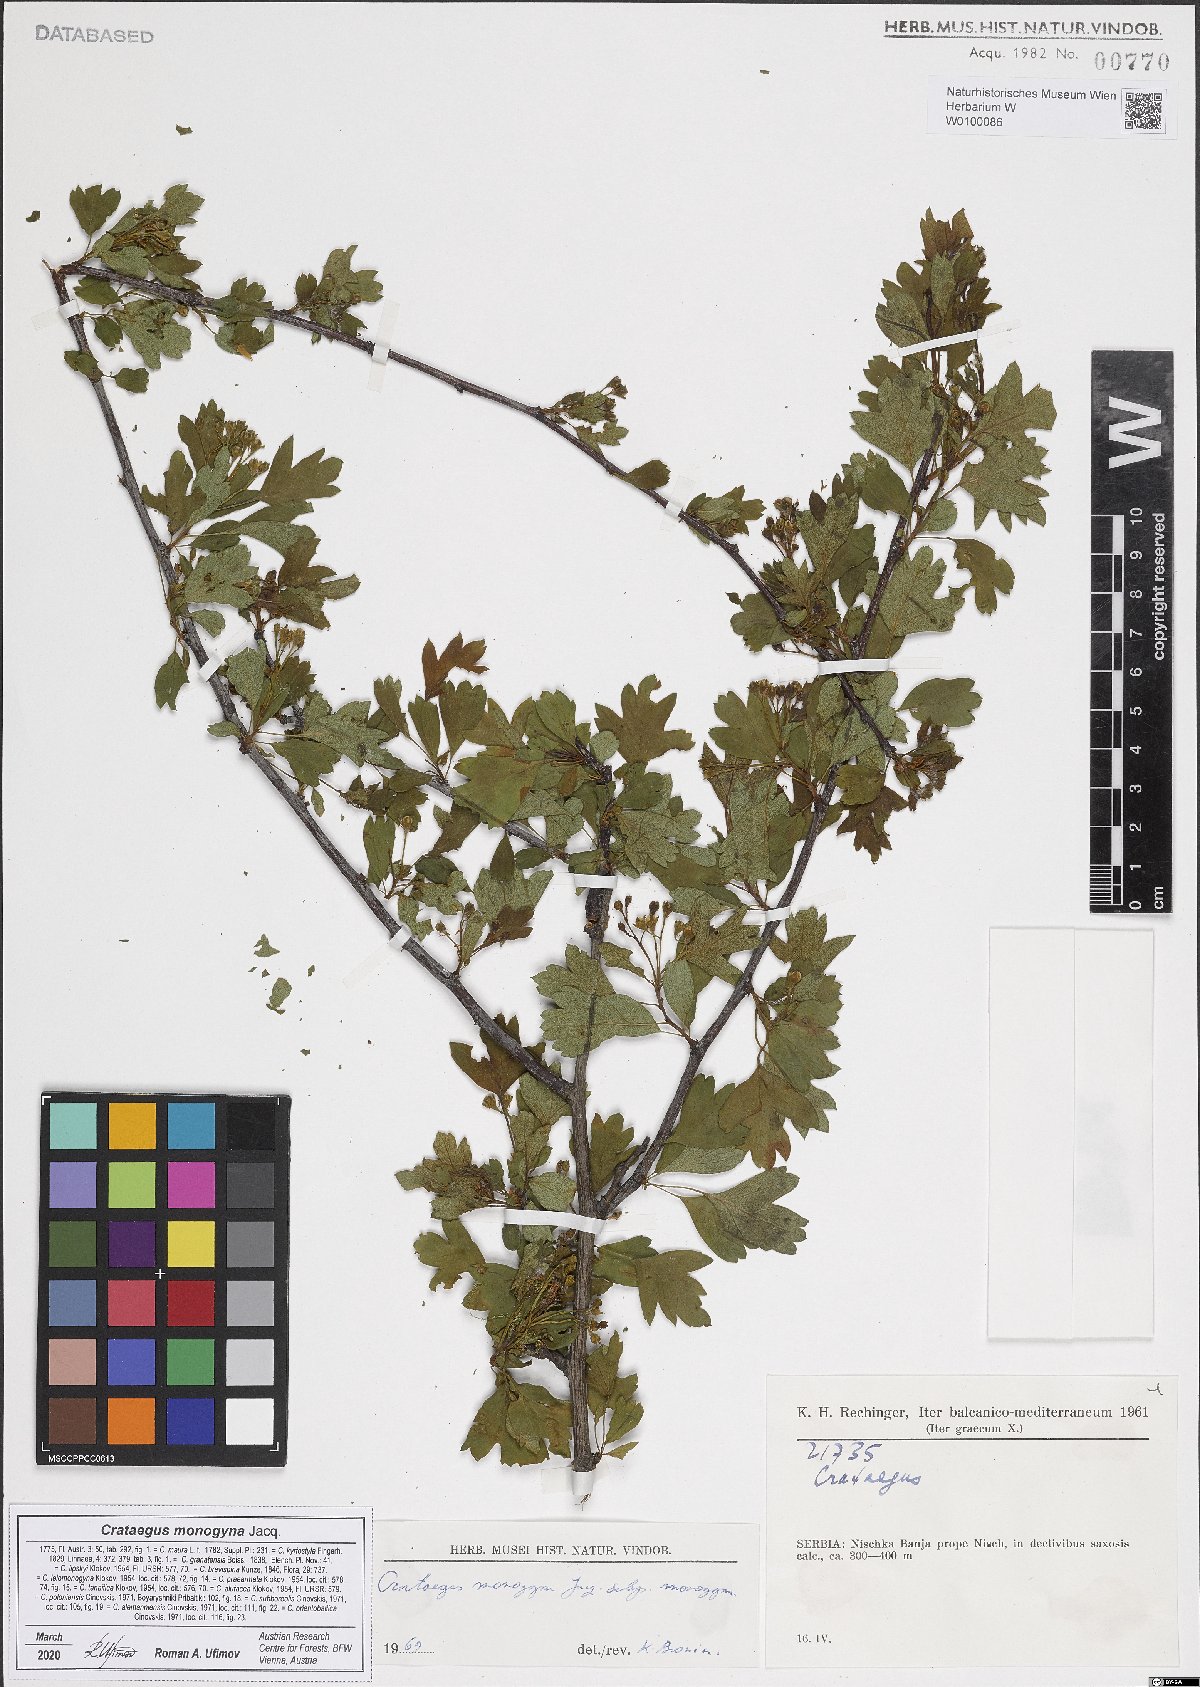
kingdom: Plantae
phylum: Tracheophyta
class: Magnoliopsida
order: Rosales
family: Rosaceae
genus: Crataegus
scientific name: Crataegus monogyna
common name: Hawthorn
